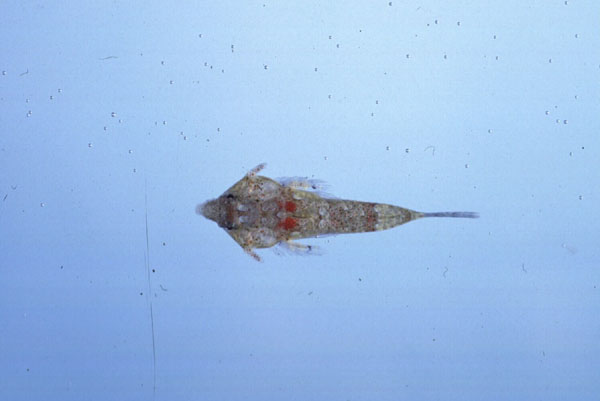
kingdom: Animalia
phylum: Chordata
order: Perciformes
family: Callionymidae
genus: Callionymus
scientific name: Callionymus marleyi
